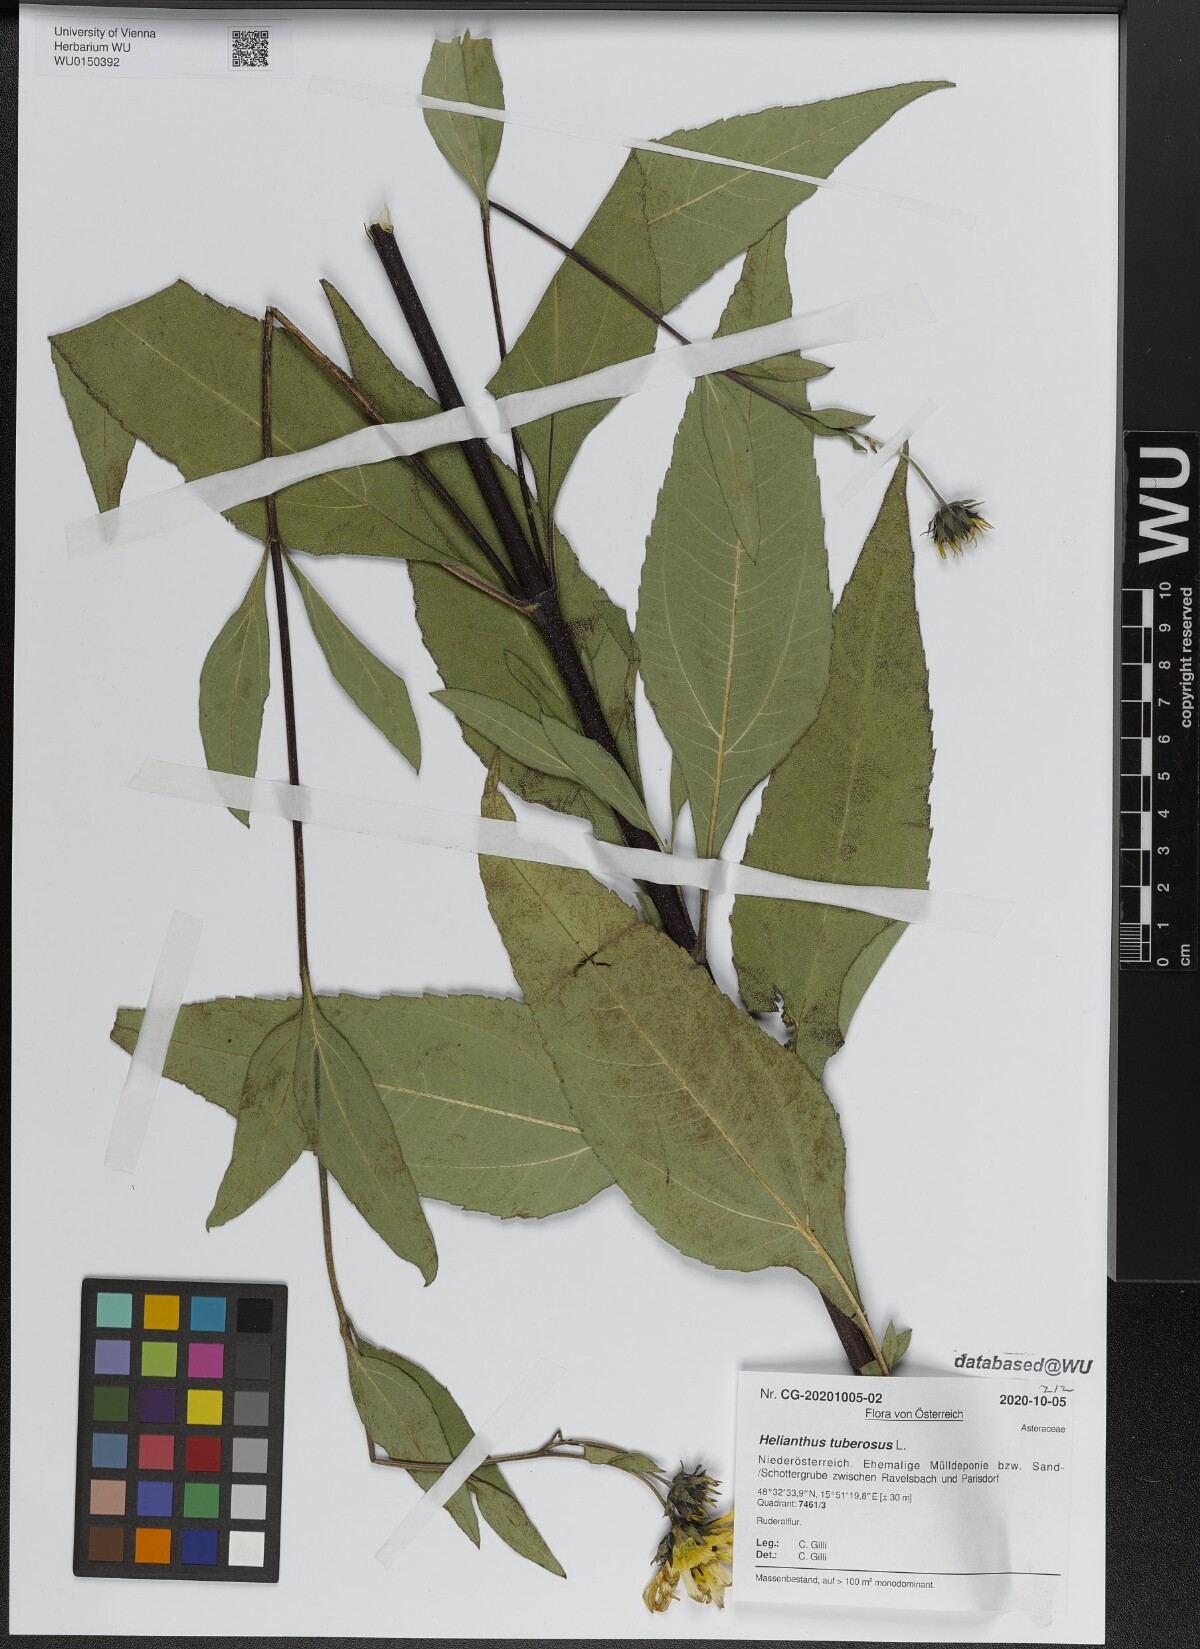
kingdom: Plantae
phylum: Tracheophyta
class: Magnoliopsida
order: Asterales
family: Asteraceae
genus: Helianthus
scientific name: Helianthus tuberosus
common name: Jerusalem artichoke
